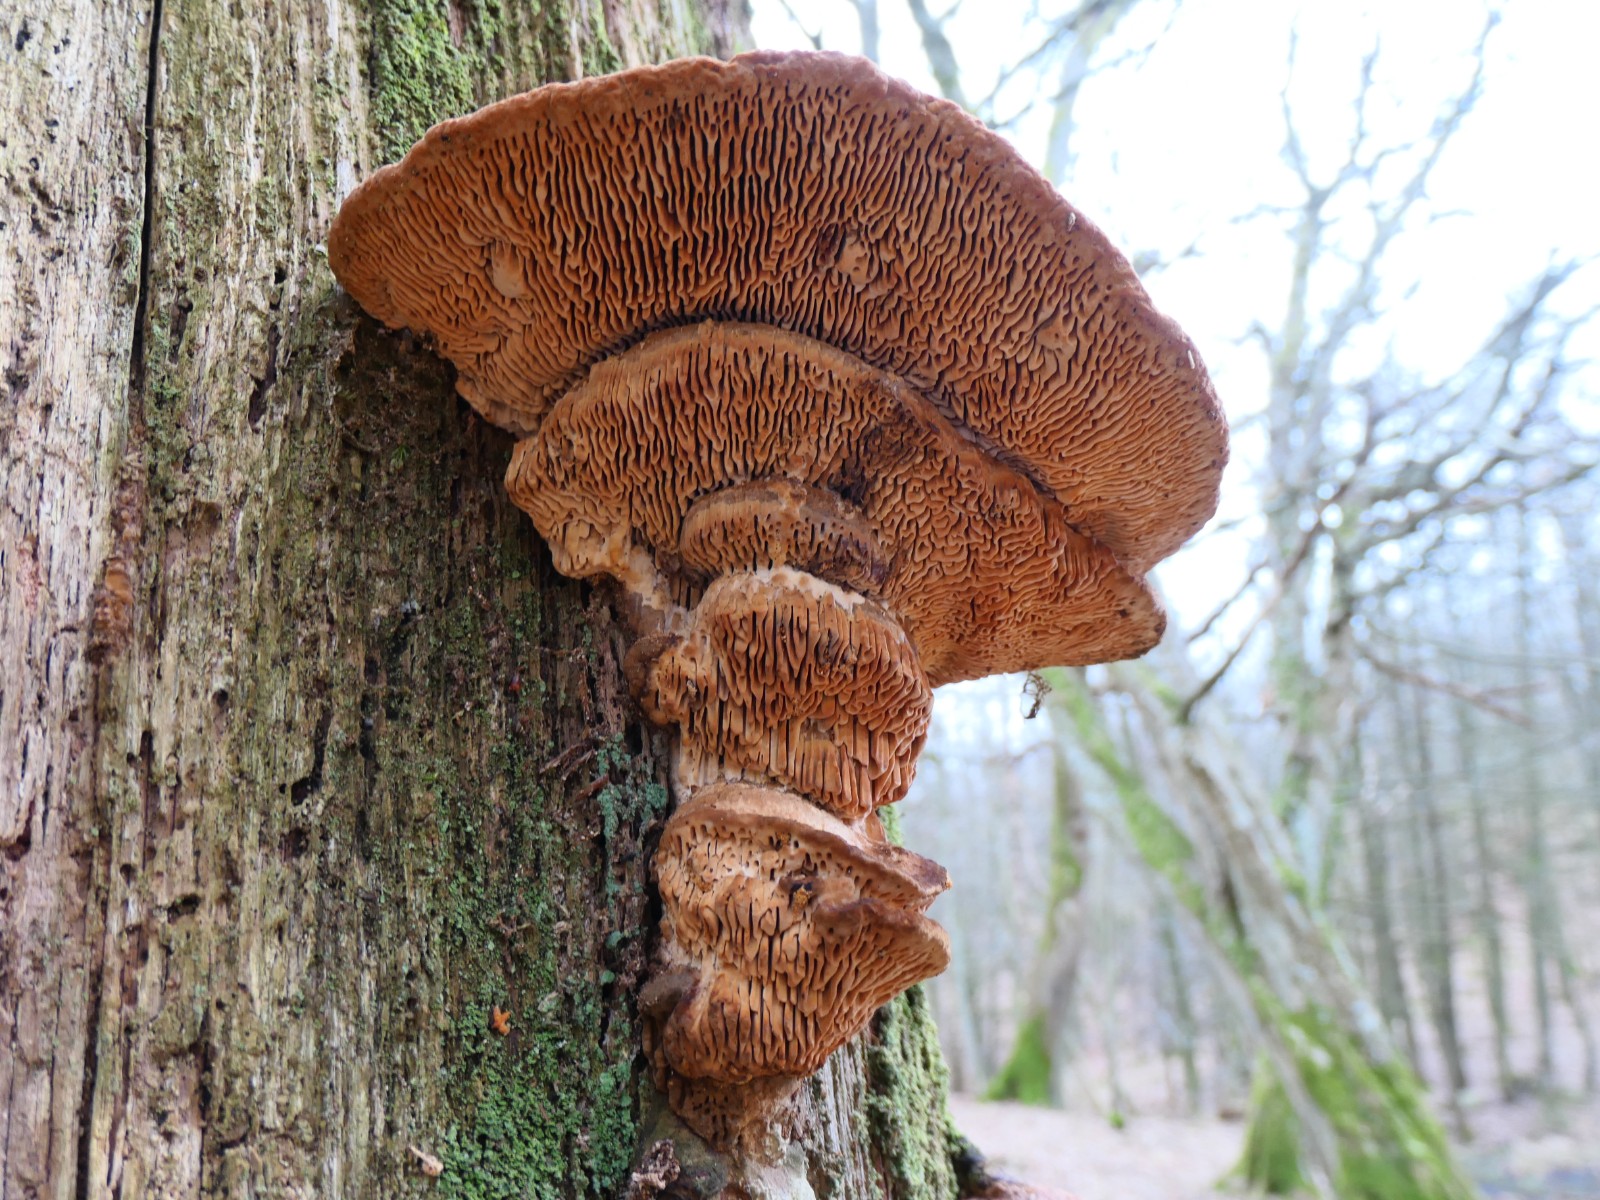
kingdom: Fungi
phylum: Basidiomycota
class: Agaricomycetes
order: Polyporales
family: Fomitopsidaceae
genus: Daedalea
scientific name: Daedalea quercina
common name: ege-labyrintsvamp
